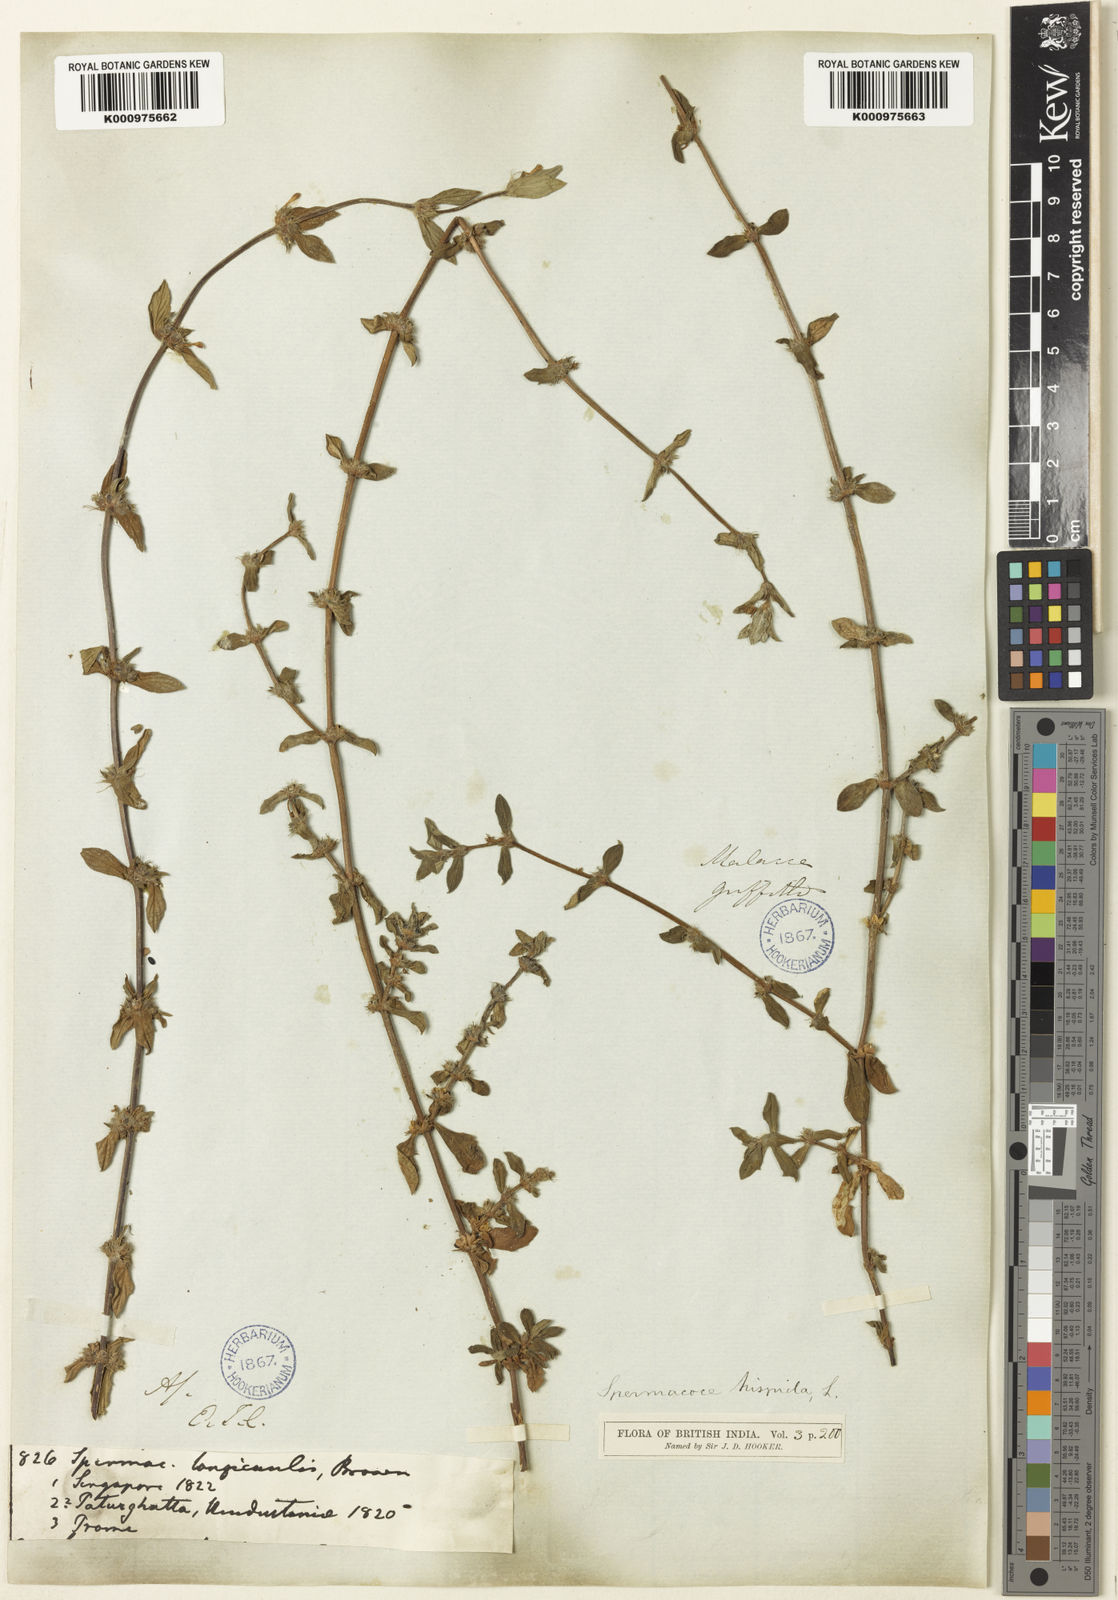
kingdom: Plantae
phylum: Tracheophyta
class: Magnoliopsida
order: Gentianales
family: Rubiaceae
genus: Spermacoce
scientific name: Spermacoce articularis
